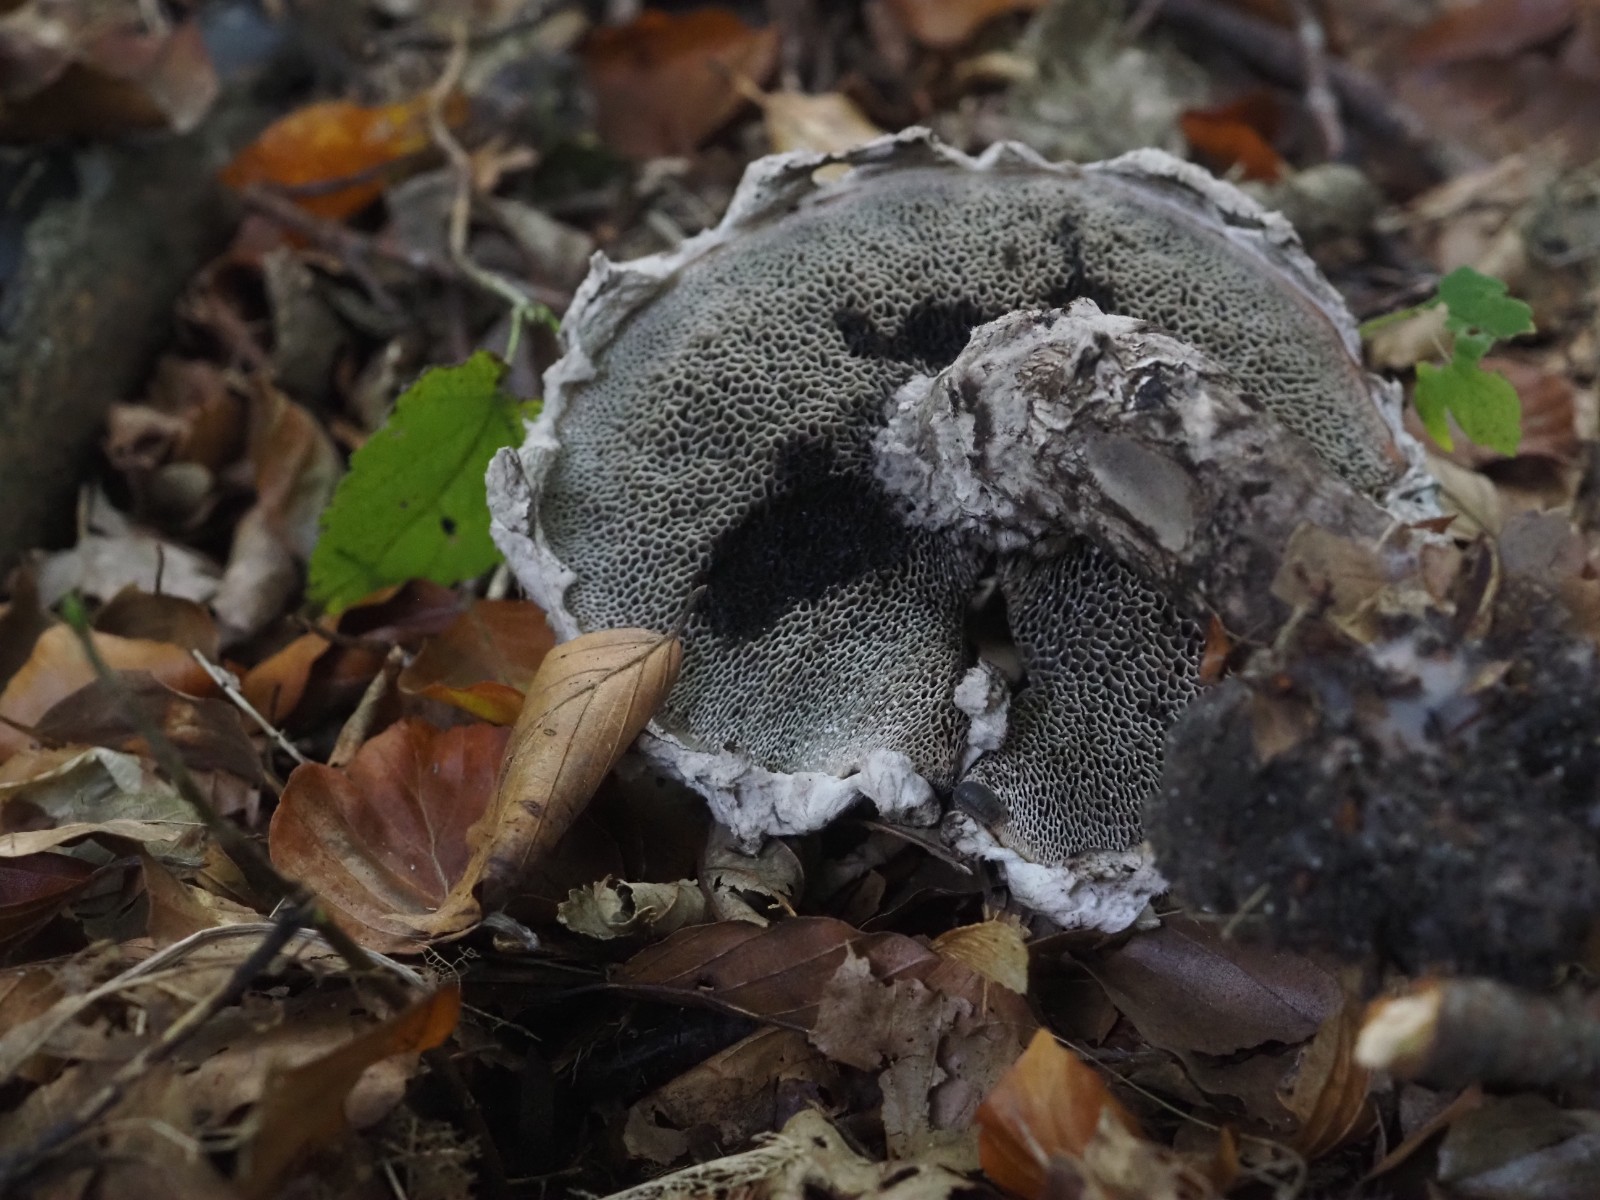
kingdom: Fungi
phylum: Basidiomycota
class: Agaricomycetes
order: Boletales
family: Boletaceae
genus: Strobilomyces
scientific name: Strobilomyces strobilaceus
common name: koglerørhat
